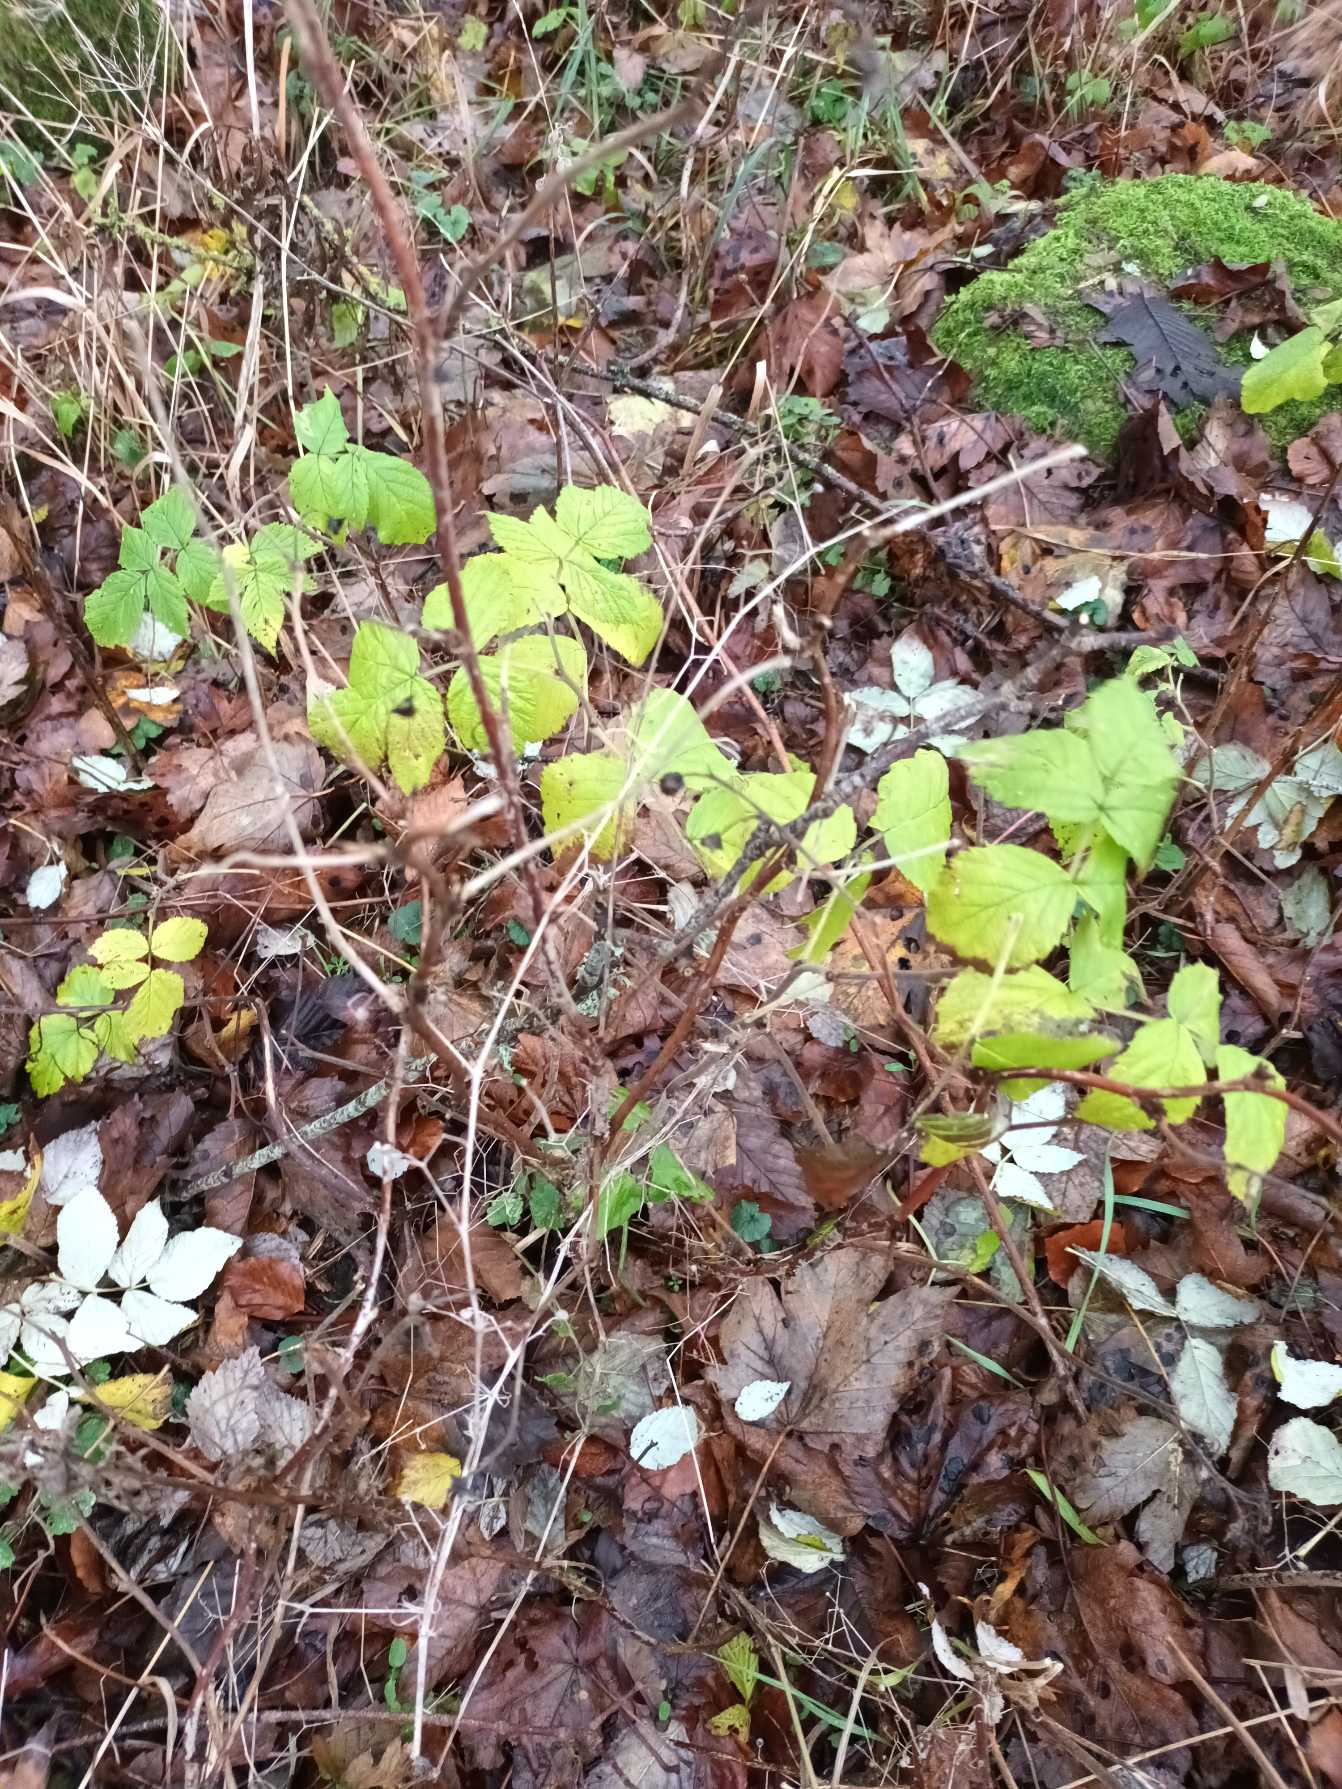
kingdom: Plantae
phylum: Tracheophyta
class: Magnoliopsida
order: Rosales
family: Rosaceae
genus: Rubus
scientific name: Rubus idaeus
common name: Hindbær
